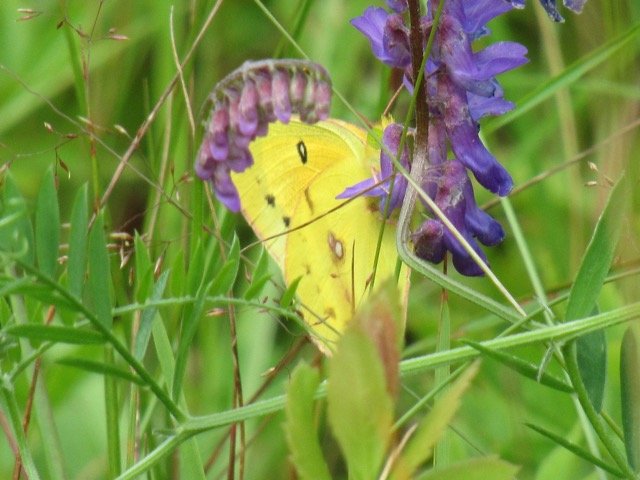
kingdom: Animalia
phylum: Arthropoda
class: Insecta
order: Lepidoptera
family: Pieridae
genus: Colias
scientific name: Colias eurytheme
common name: Orange Sulphur
